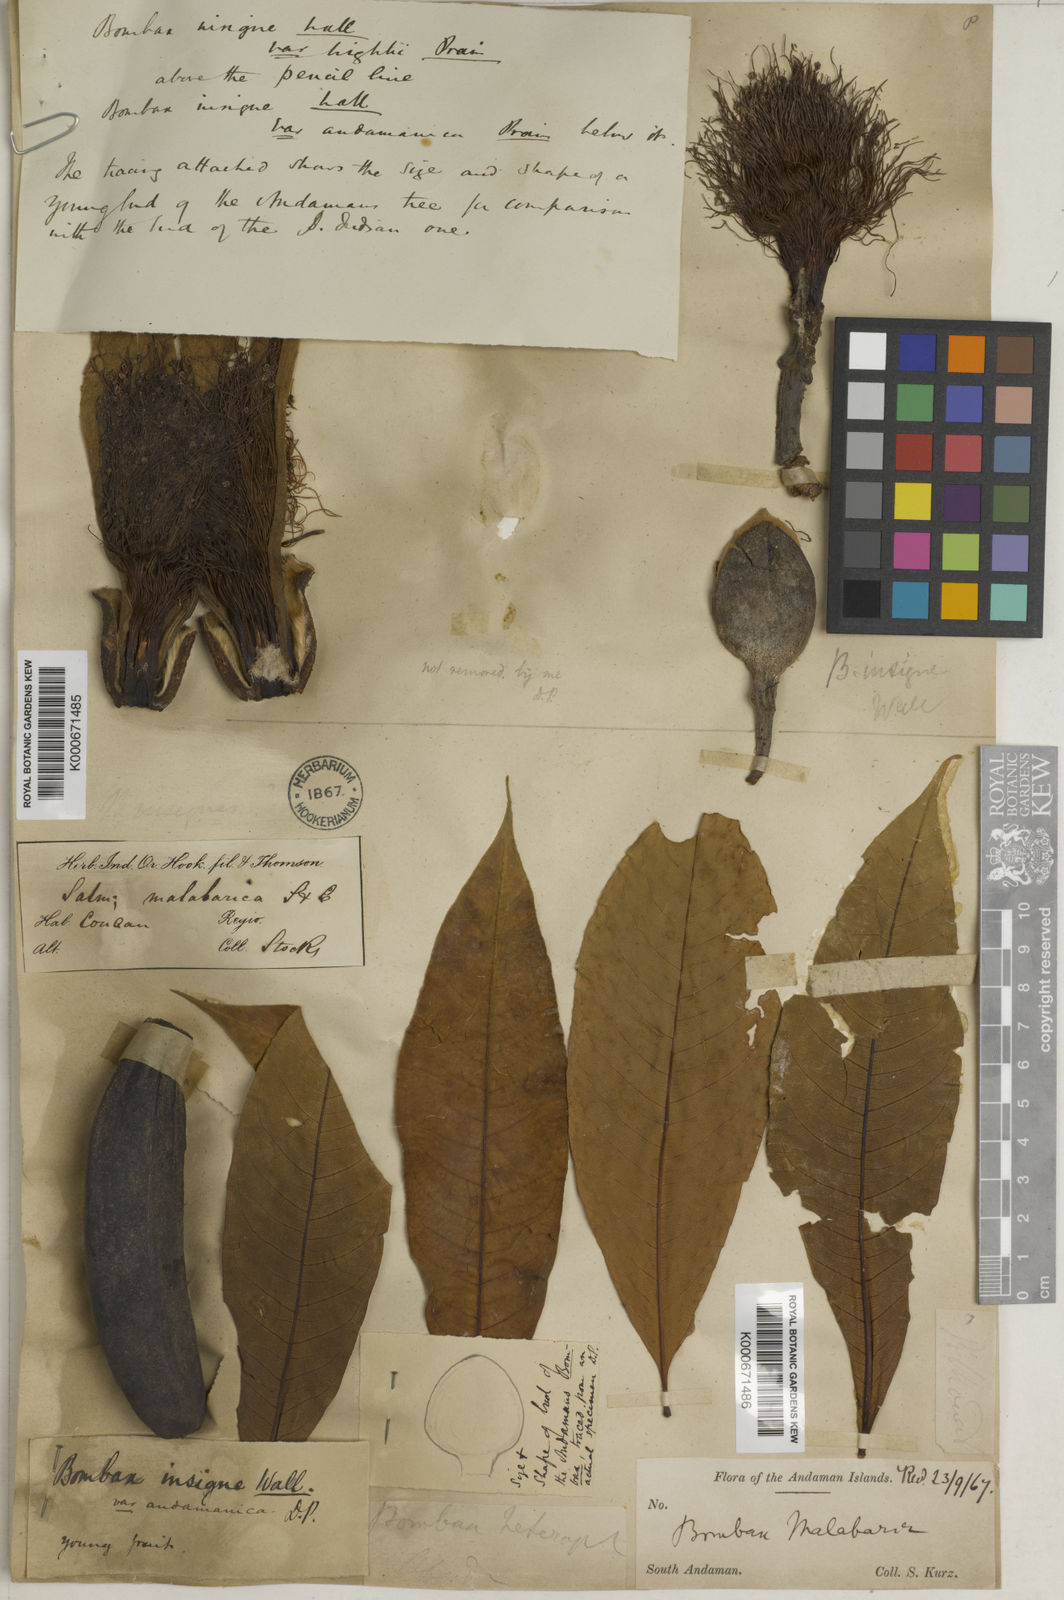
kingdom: Plantae
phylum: Tracheophyta
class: Magnoliopsida
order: Malvales
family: Malvaceae
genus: Bombax
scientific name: Bombax insigne
